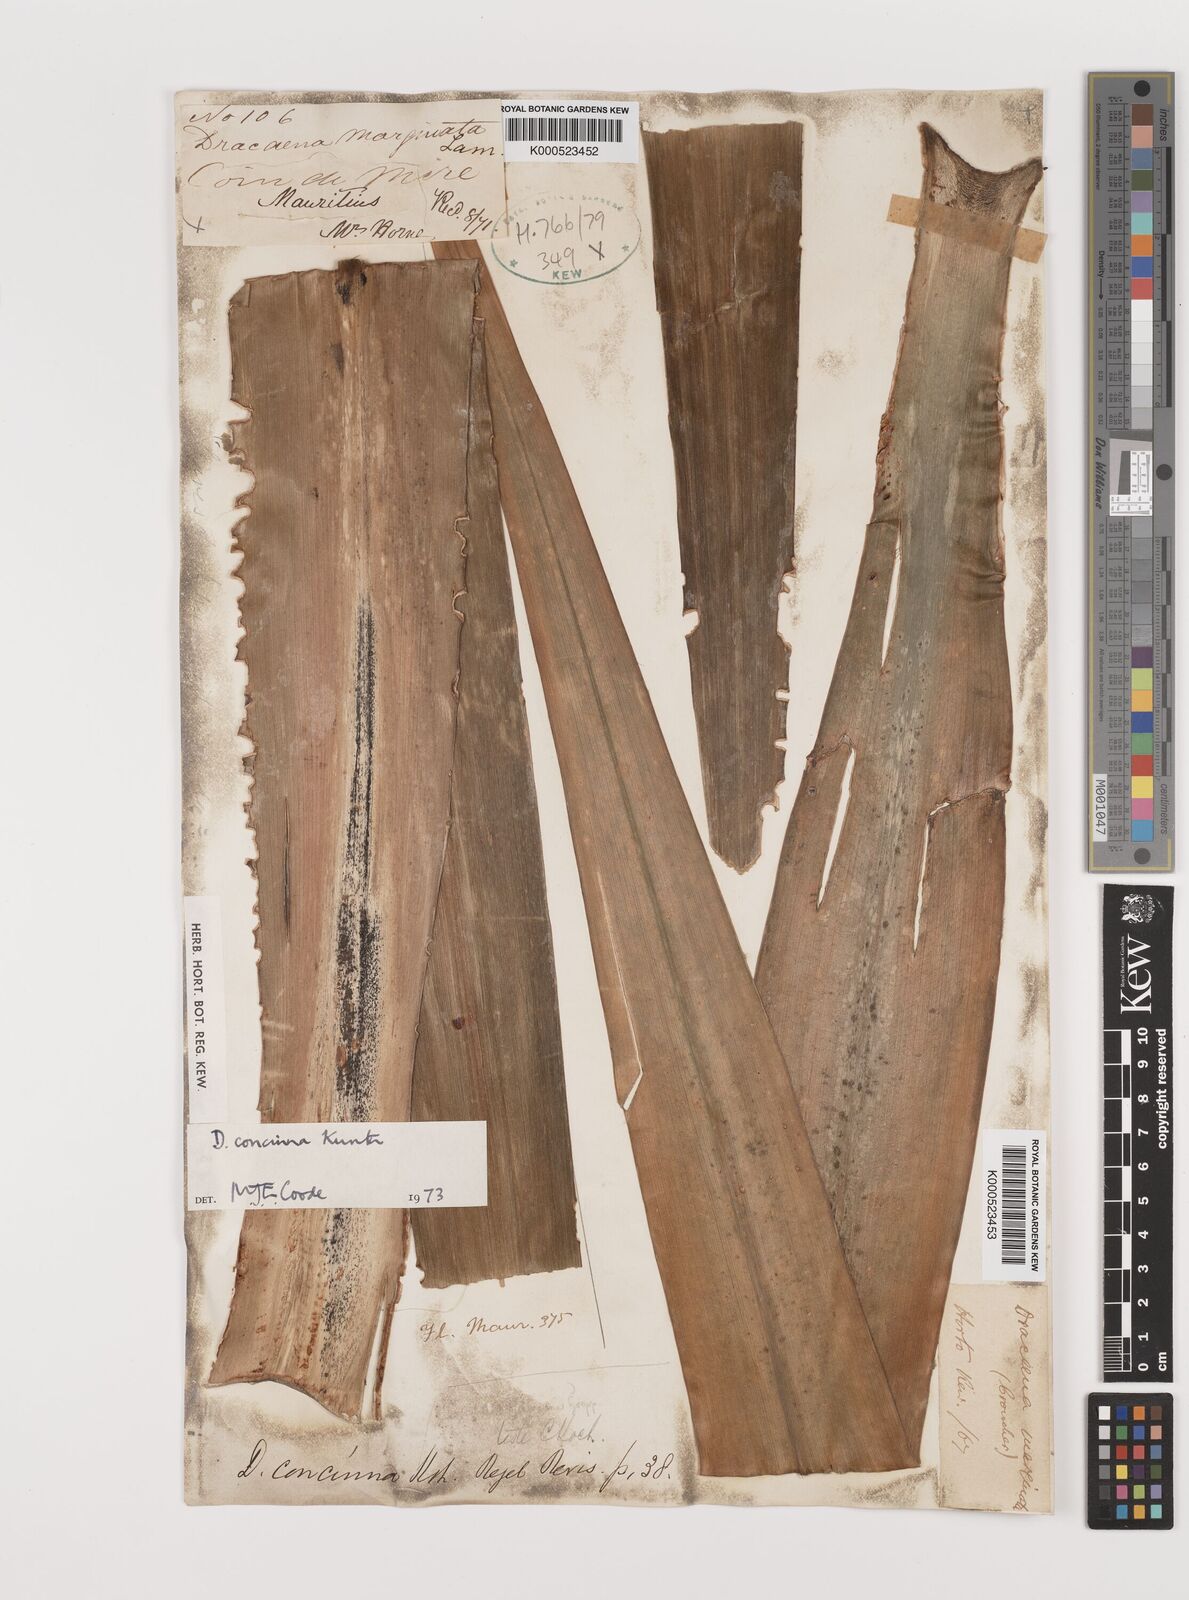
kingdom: Plantae
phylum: Tracheophyta
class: Liliopsida
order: Asparagales
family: Asparagaceae
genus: Dracaena
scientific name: Dracaena concinna
